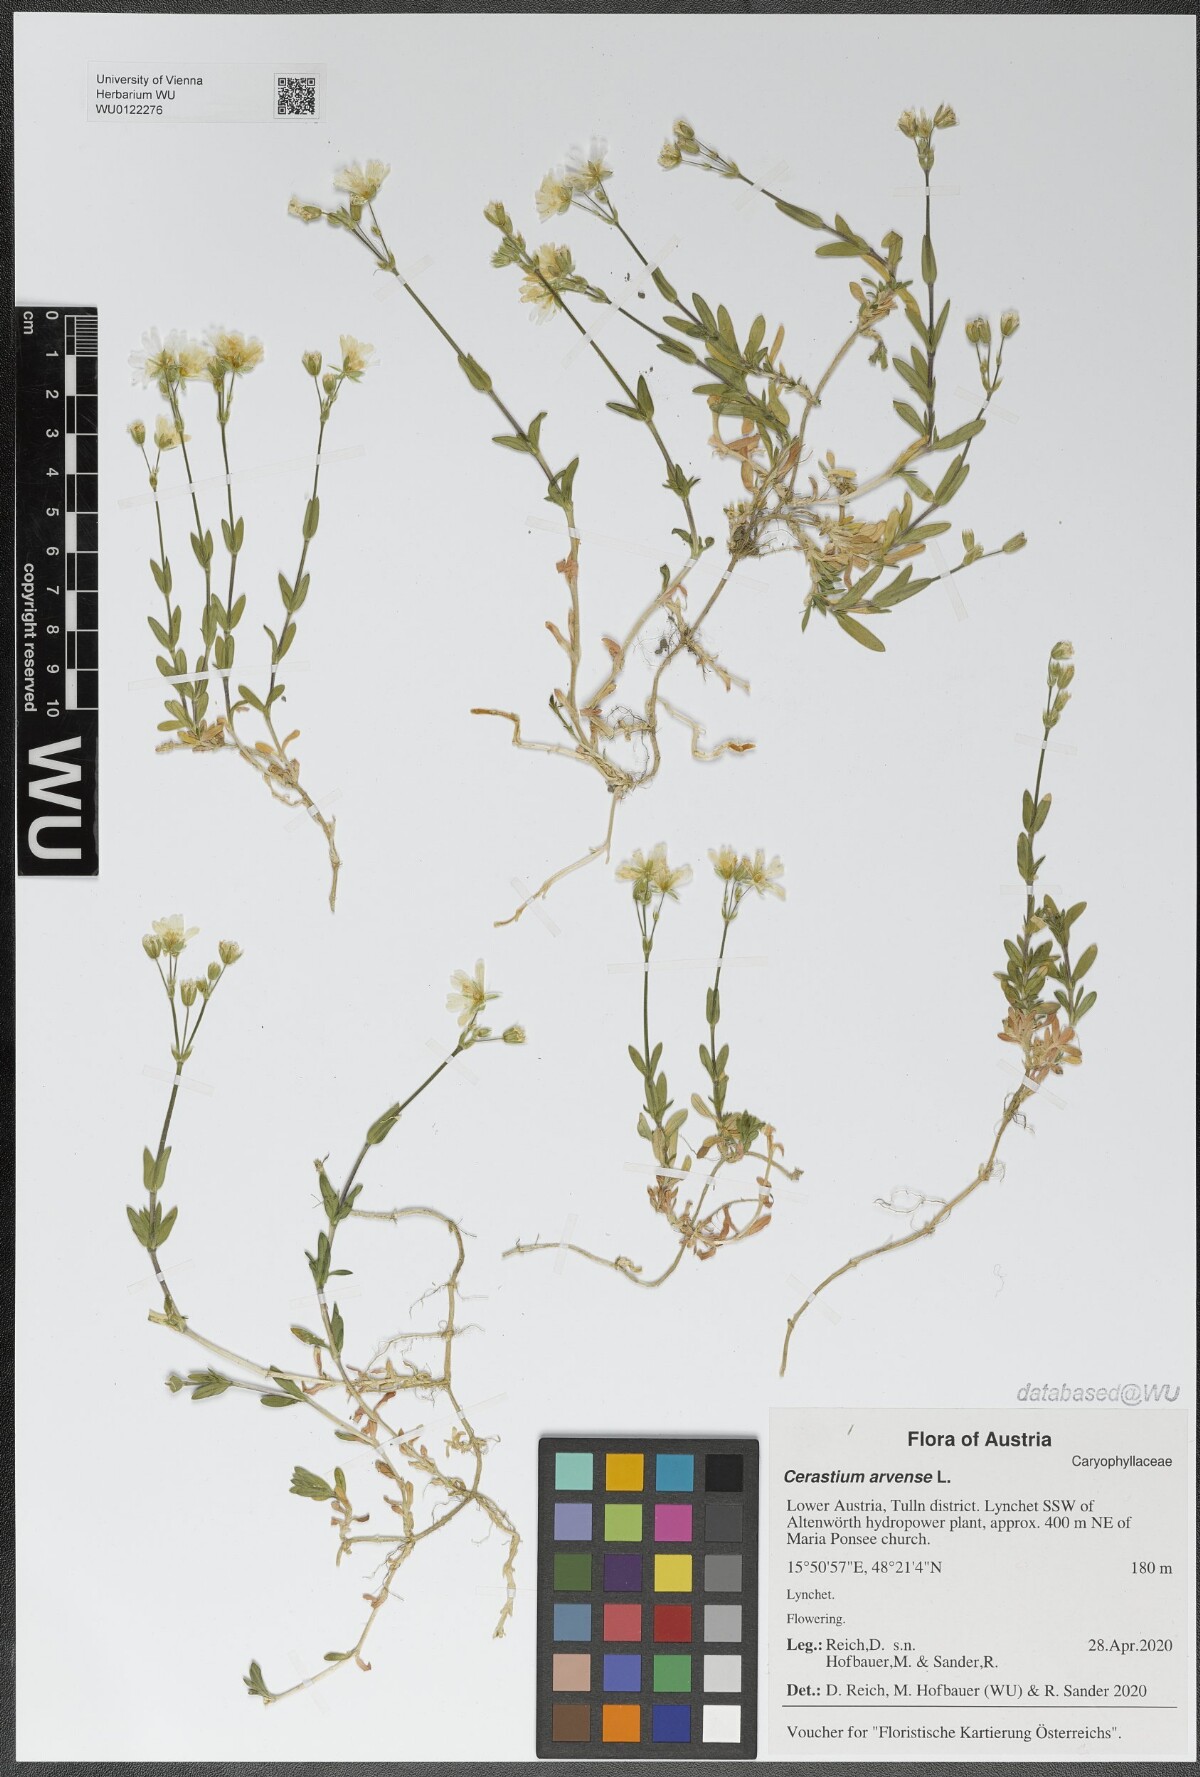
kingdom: Plantae
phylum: Tracheophyta
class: Magnoliopsida
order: Caryophyllales
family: Caryophyllaceae
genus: Cerastium
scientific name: Cerastium arvense
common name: Field mouse-ear
